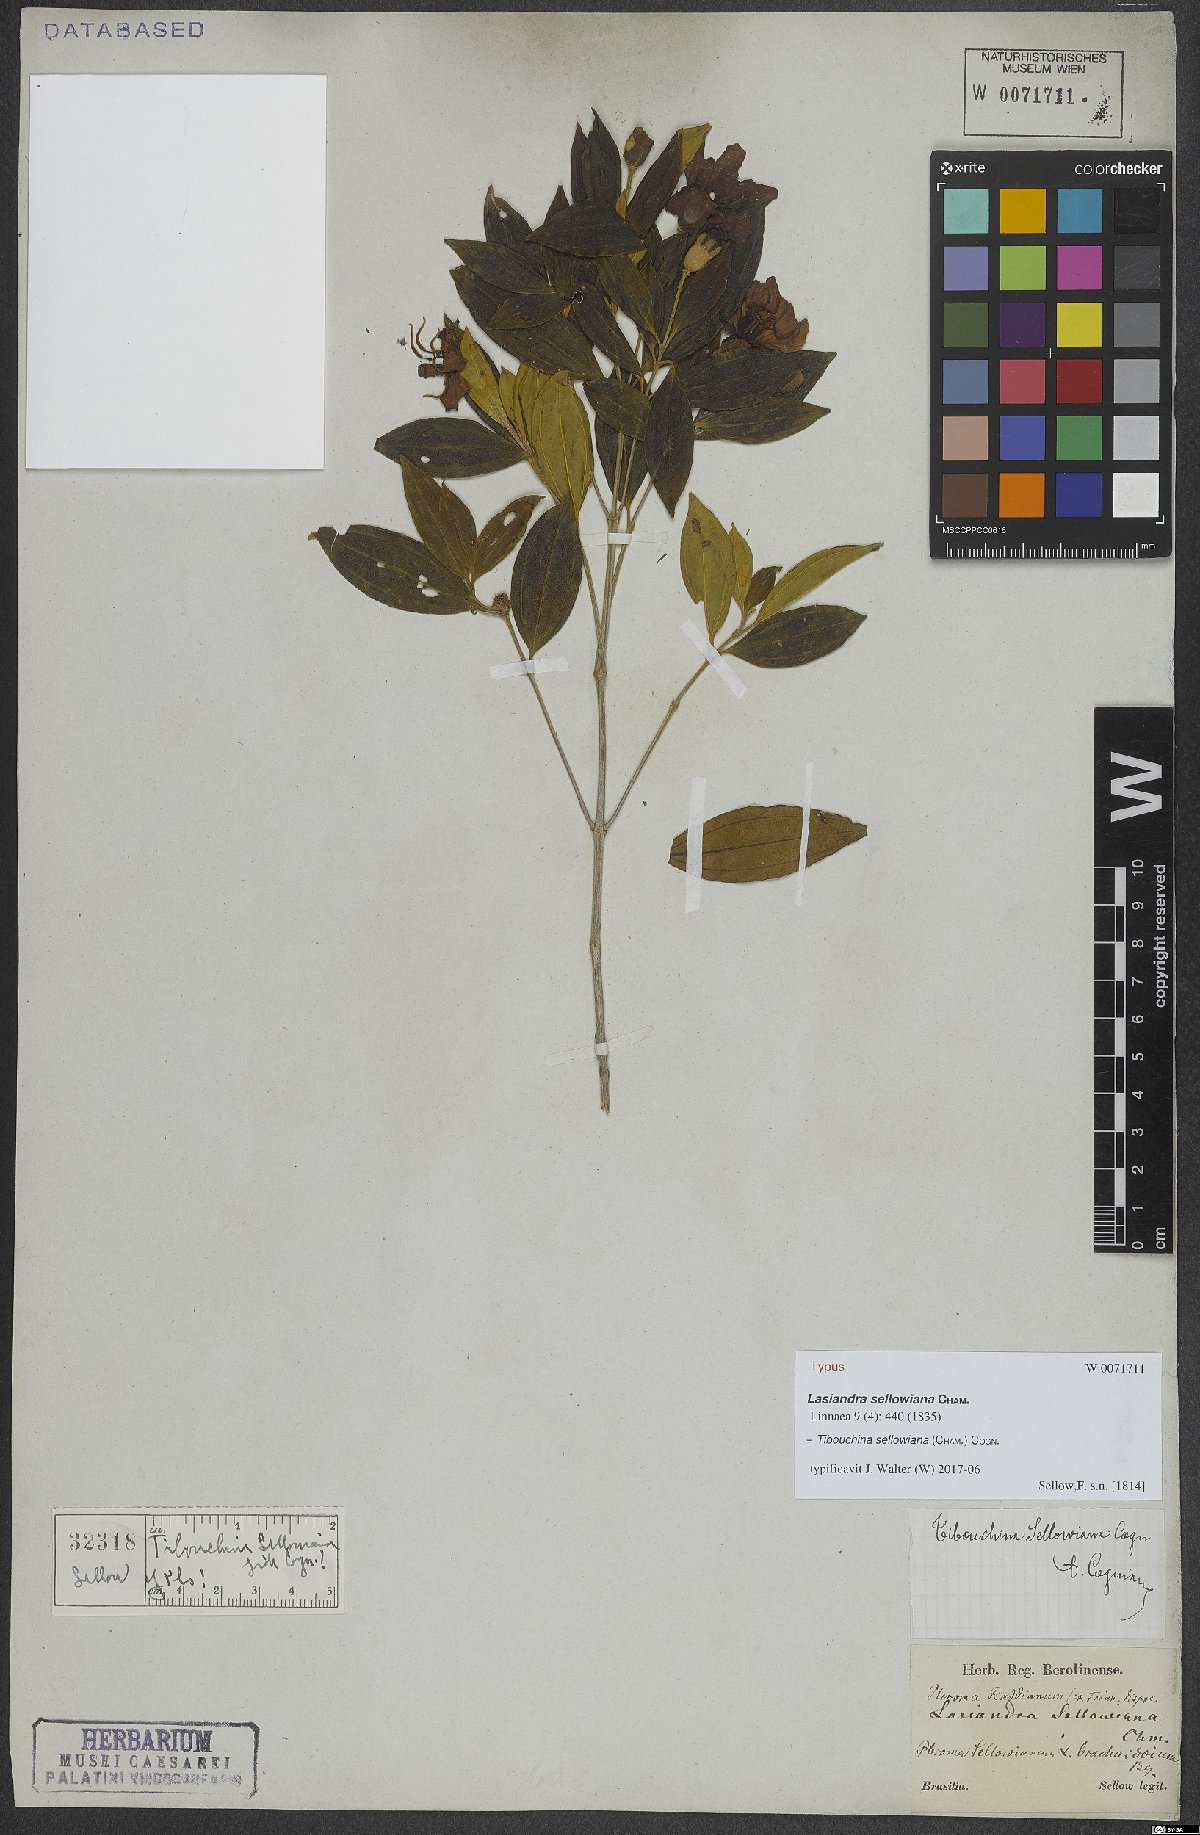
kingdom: Plantae
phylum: Tracheophyta
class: Magnoliopsida
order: Myrtales
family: Melastomataceae
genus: Pleroma
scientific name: Pleroma sellowianum
